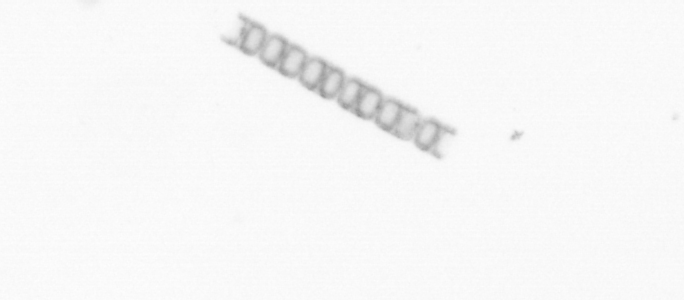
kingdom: Chromista
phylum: Ochrophyta
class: Bacillariophyceae
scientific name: Bacillariophyceae
